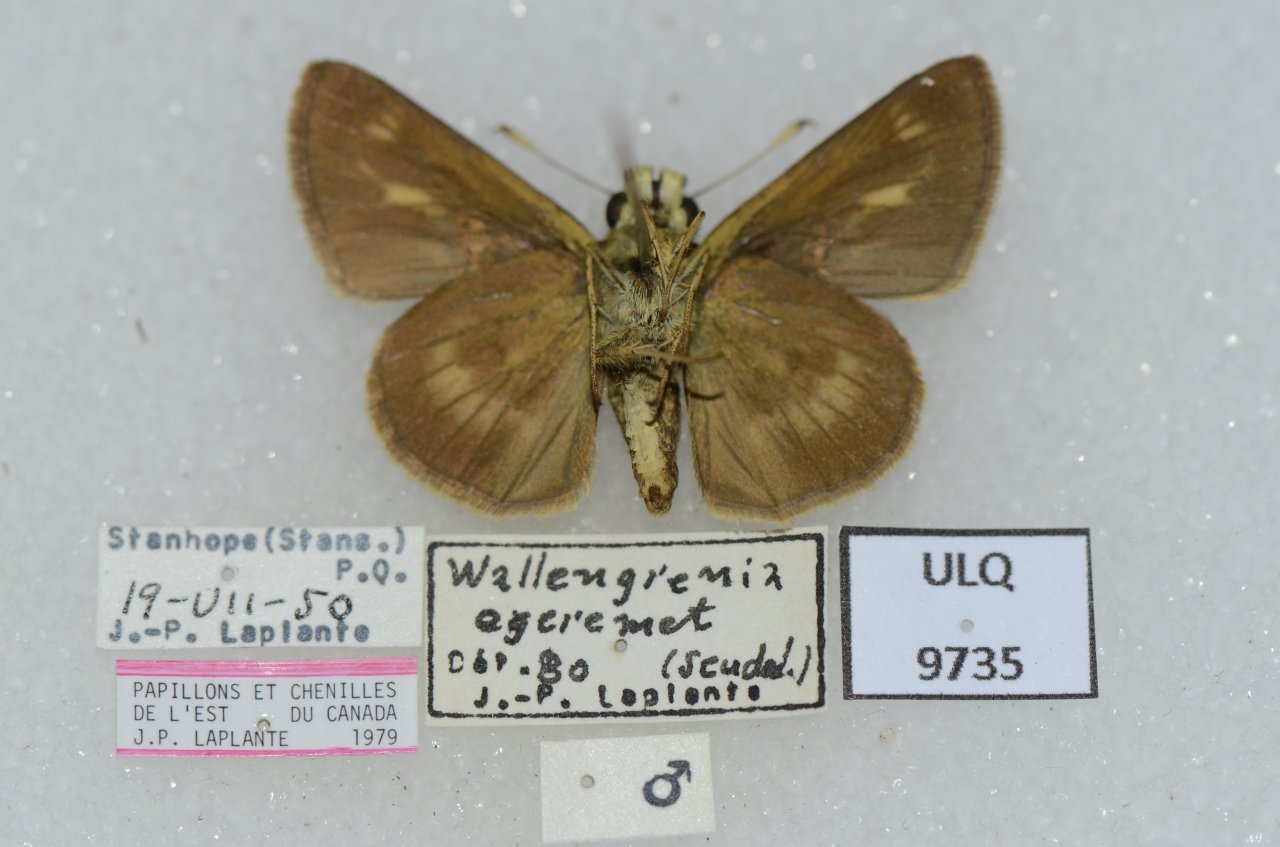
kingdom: Animalia
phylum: Arthropoda
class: Insecta
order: Lepidoptera
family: Hesperiidae
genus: Polites
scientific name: Polites egeremet
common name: Northern Broken-Dash
